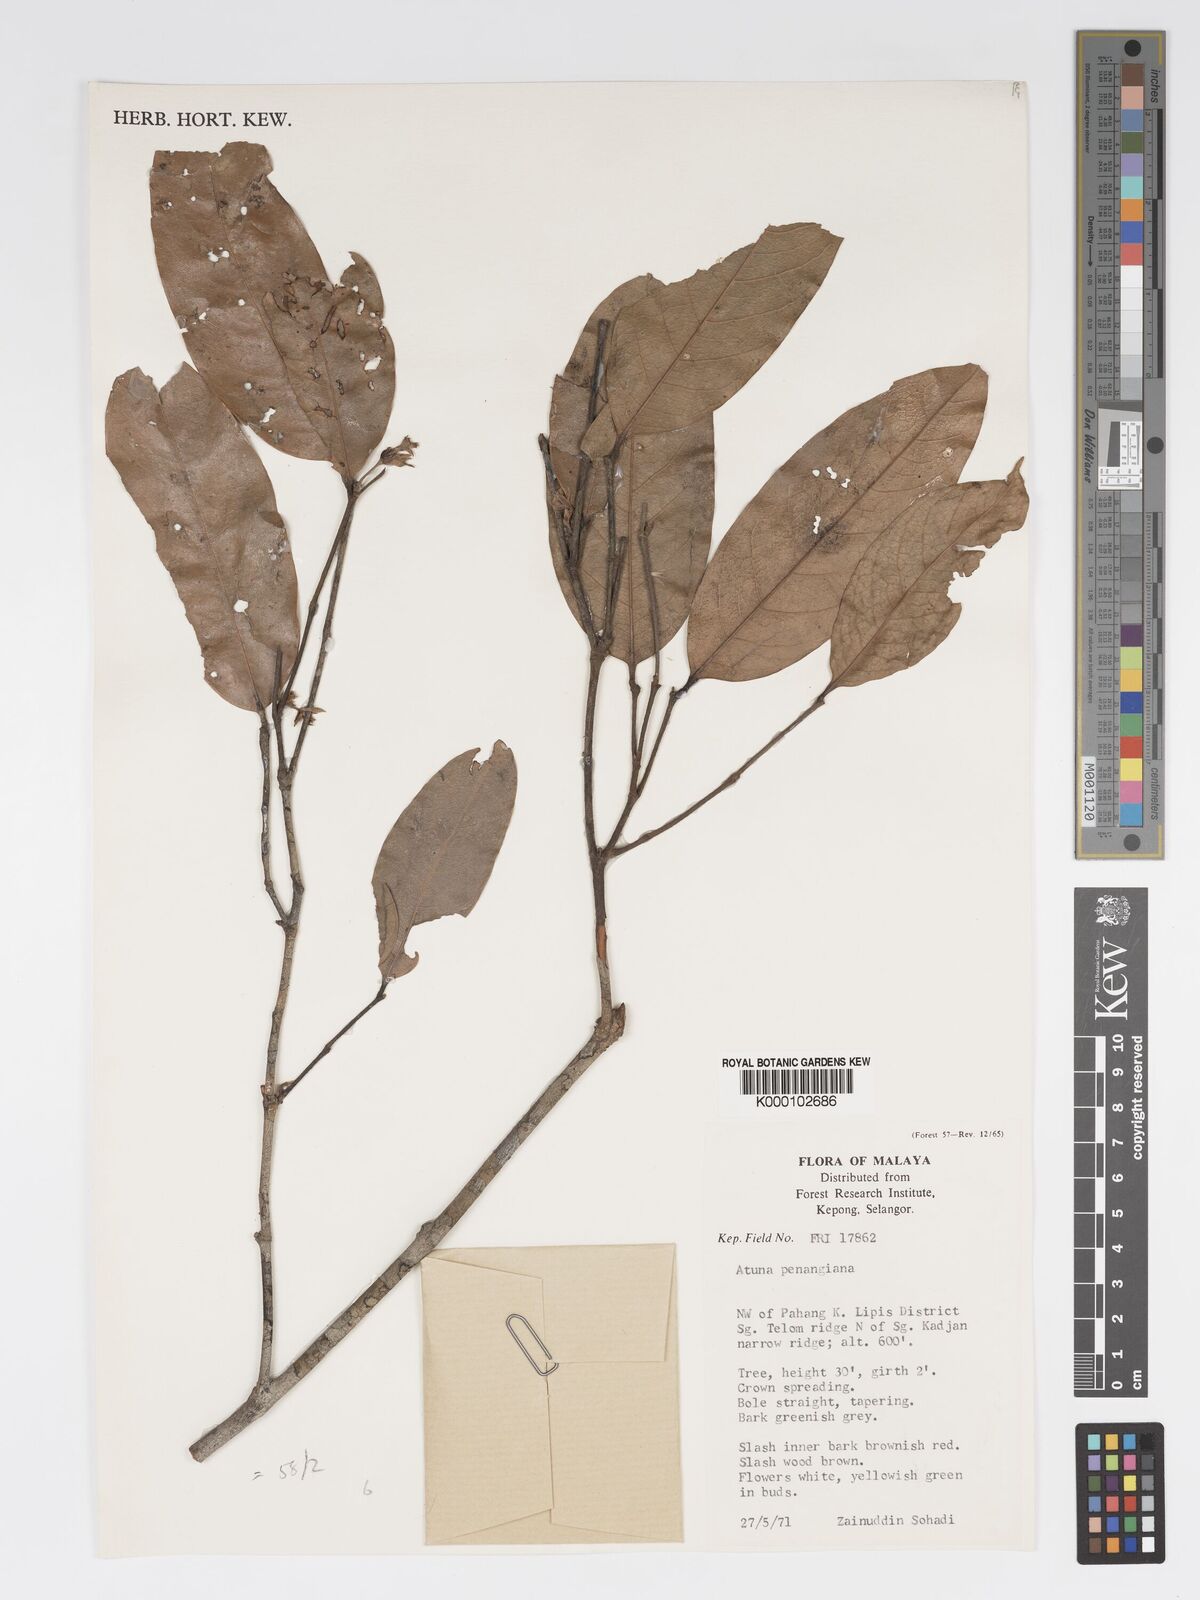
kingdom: Plantae
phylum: Tracheophyta
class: Magnoliopsida
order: Malpighiales
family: Chrysobalanaceae
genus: Atuna
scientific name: Atuna penangiana
